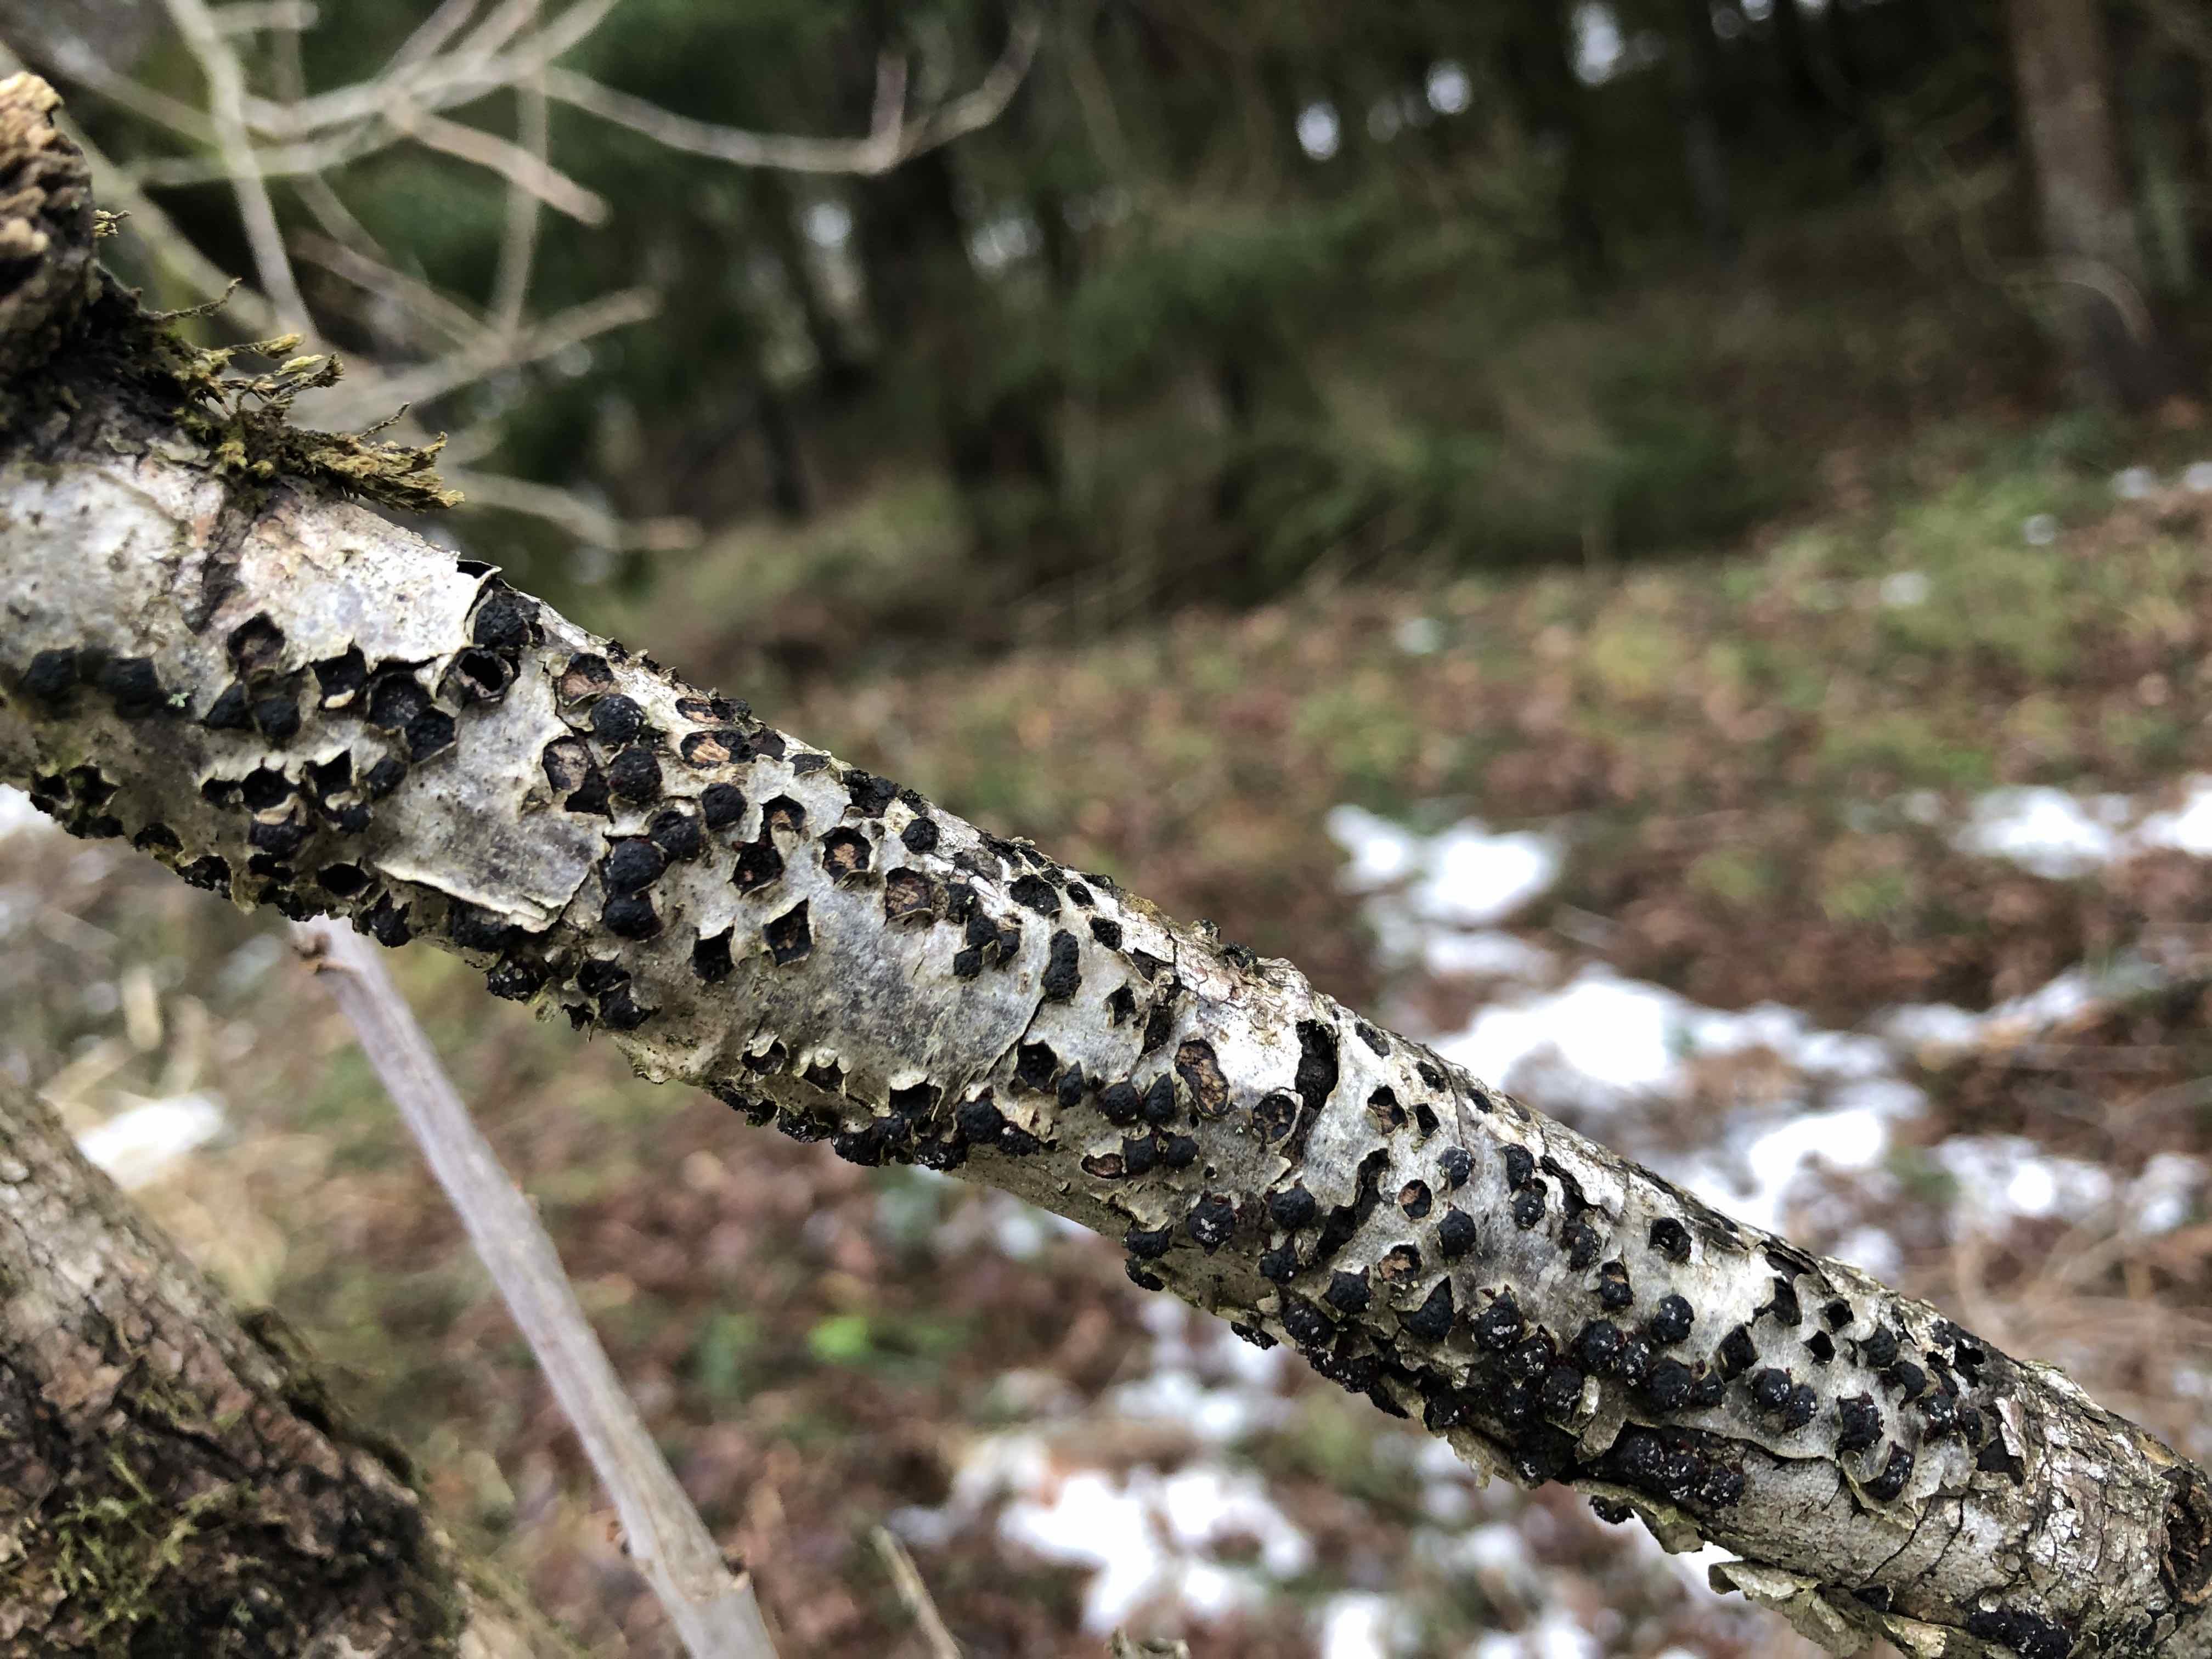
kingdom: Fungi
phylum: Ascomycota
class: Sordariomycetes
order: Xylariales
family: Diatrypaceae
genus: Diatrypella
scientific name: Diatrypella quercina
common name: ege-kulskorpe
